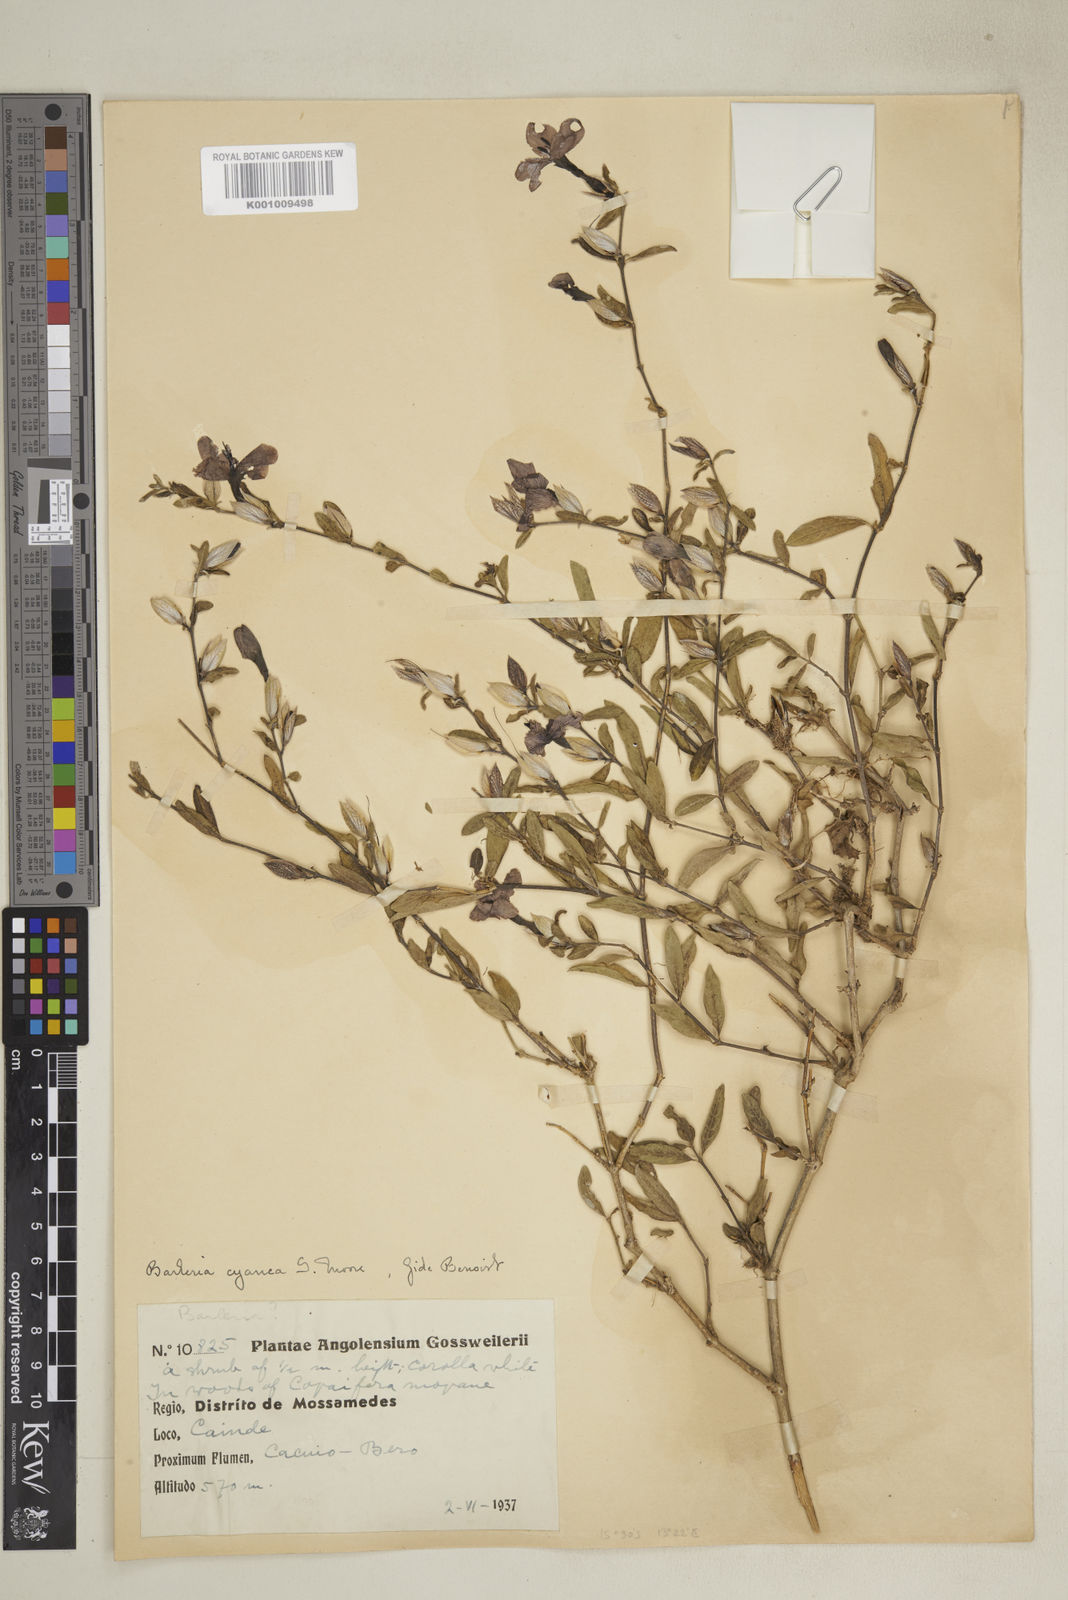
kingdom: Plantae
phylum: Tracheophyta
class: Magnoliopsida
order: Lamiales
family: Acanthaceae
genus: Barleria
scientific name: Barleria cyanea
